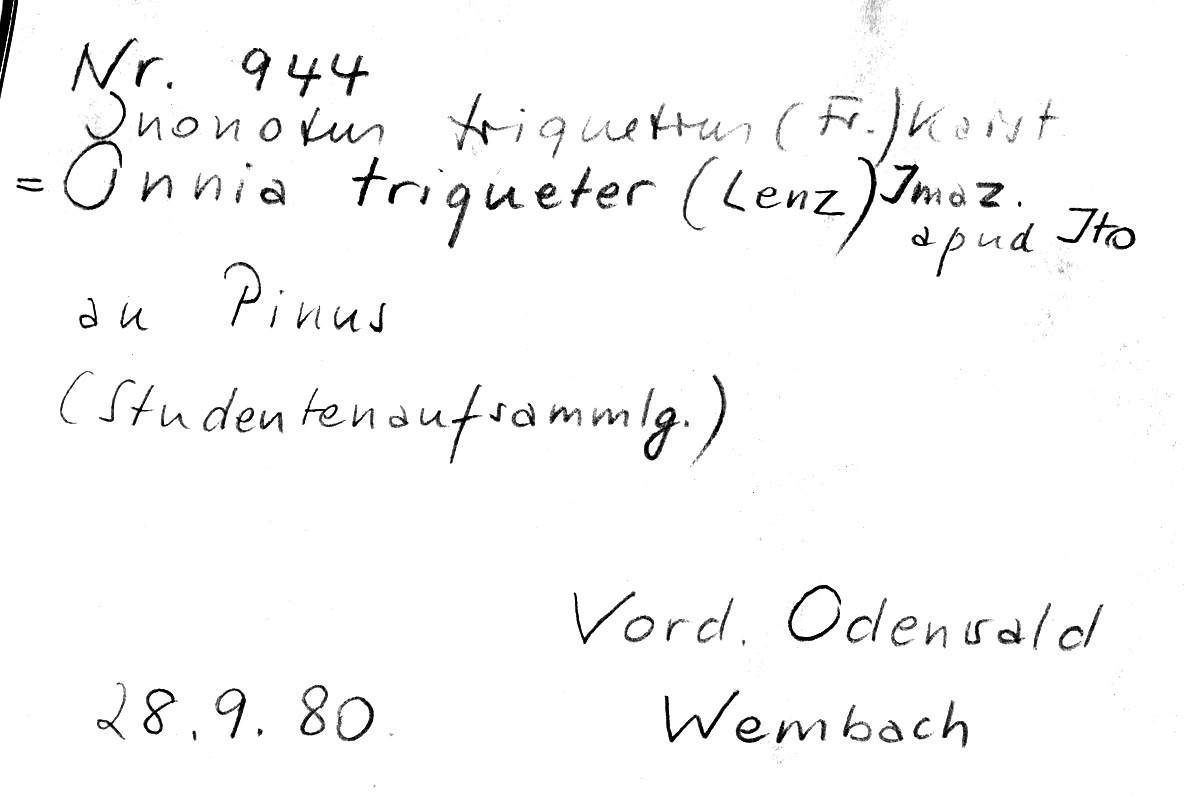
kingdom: Fungi
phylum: Basidiomycota
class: Agaricomycetes
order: Hymenochaetales
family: Hymenochaetaceae
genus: Inonotus
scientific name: Inonotus cuticularis
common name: Clustered bracket
